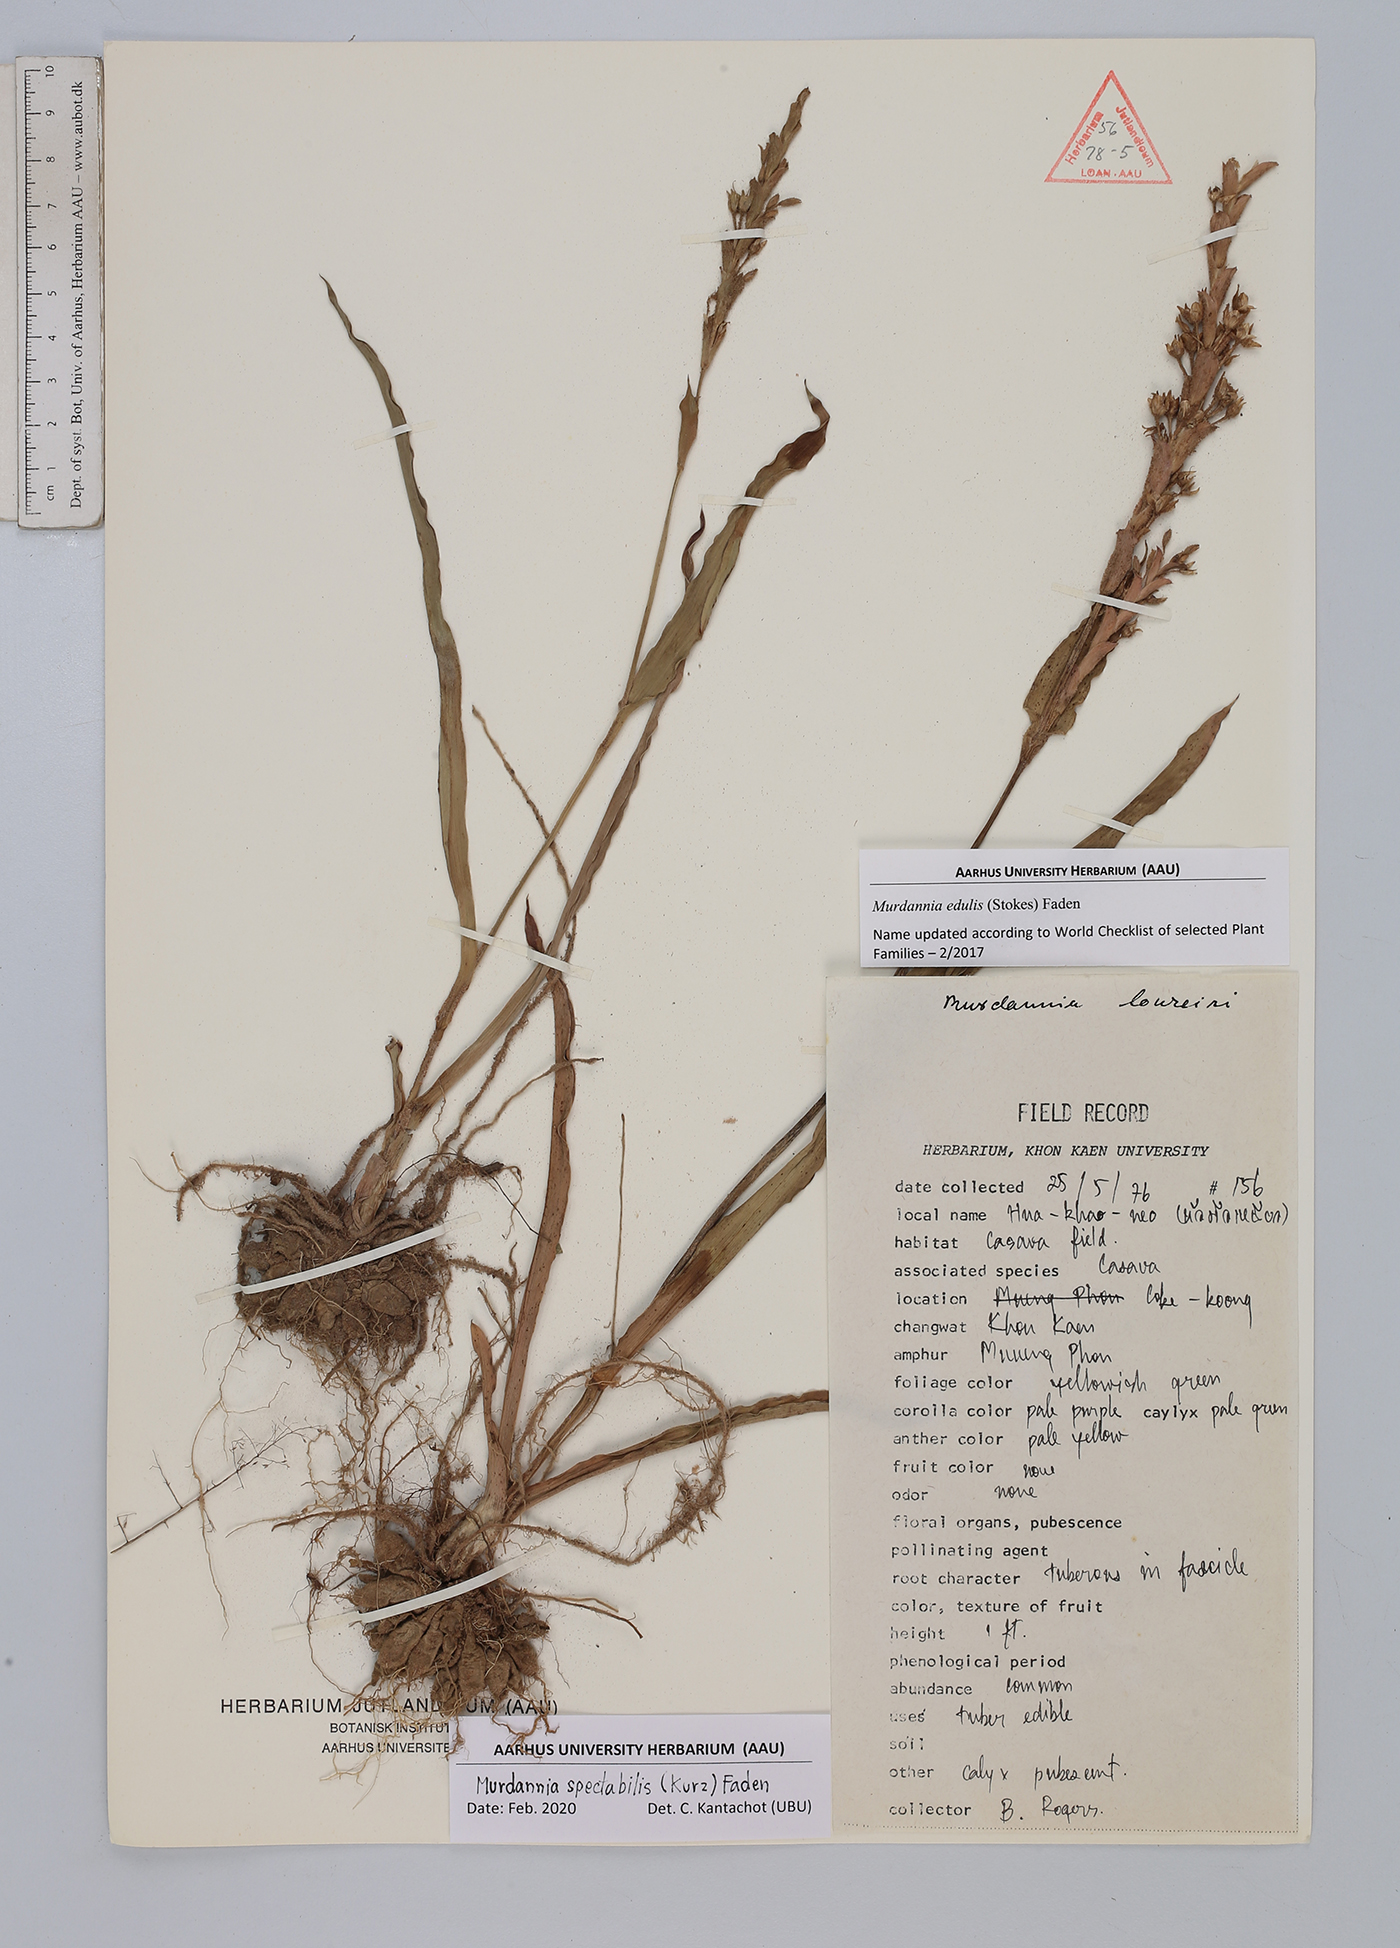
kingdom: Plantae
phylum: Tracheophyta
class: Liliopsida
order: Commelinales
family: Commelinaceae
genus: Murdannia
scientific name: Murdannia spectabilis
